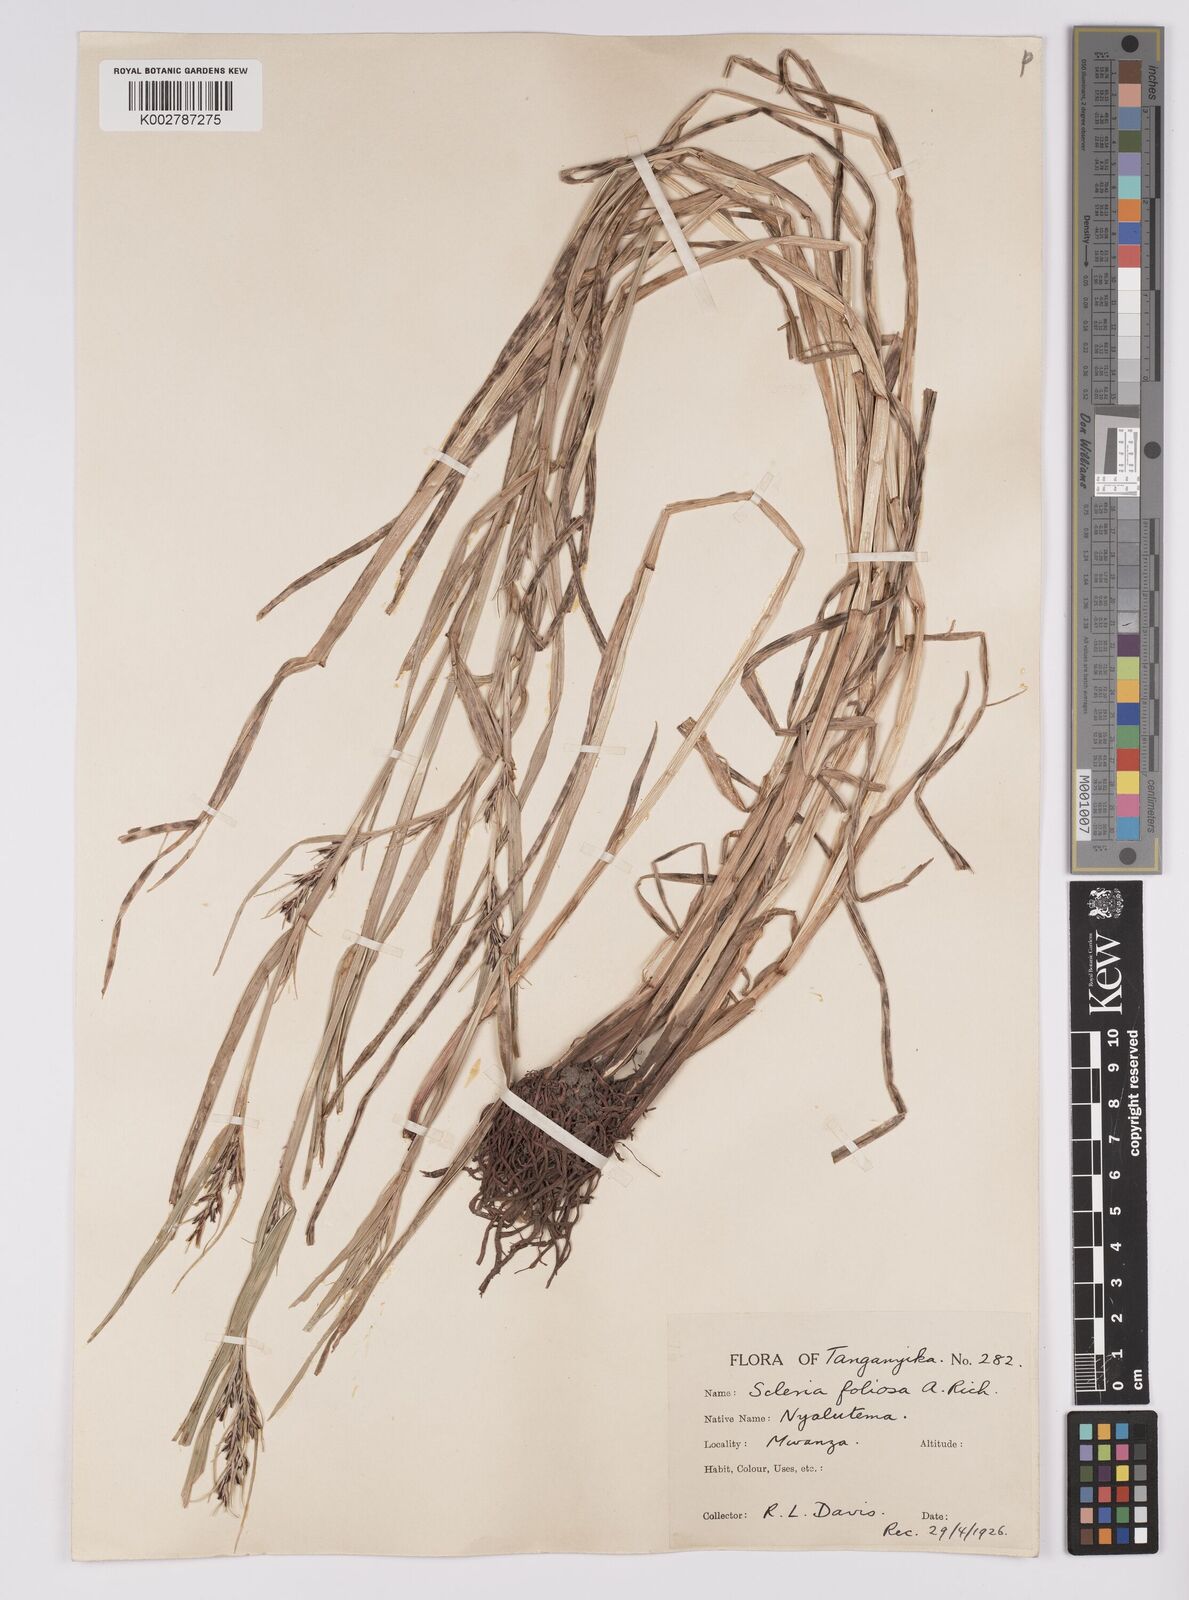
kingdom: Plantae
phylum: Tracheophyta
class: Liliopsida
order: Poales
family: Cyperaceae
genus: Scleria
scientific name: Scleria foliosa
